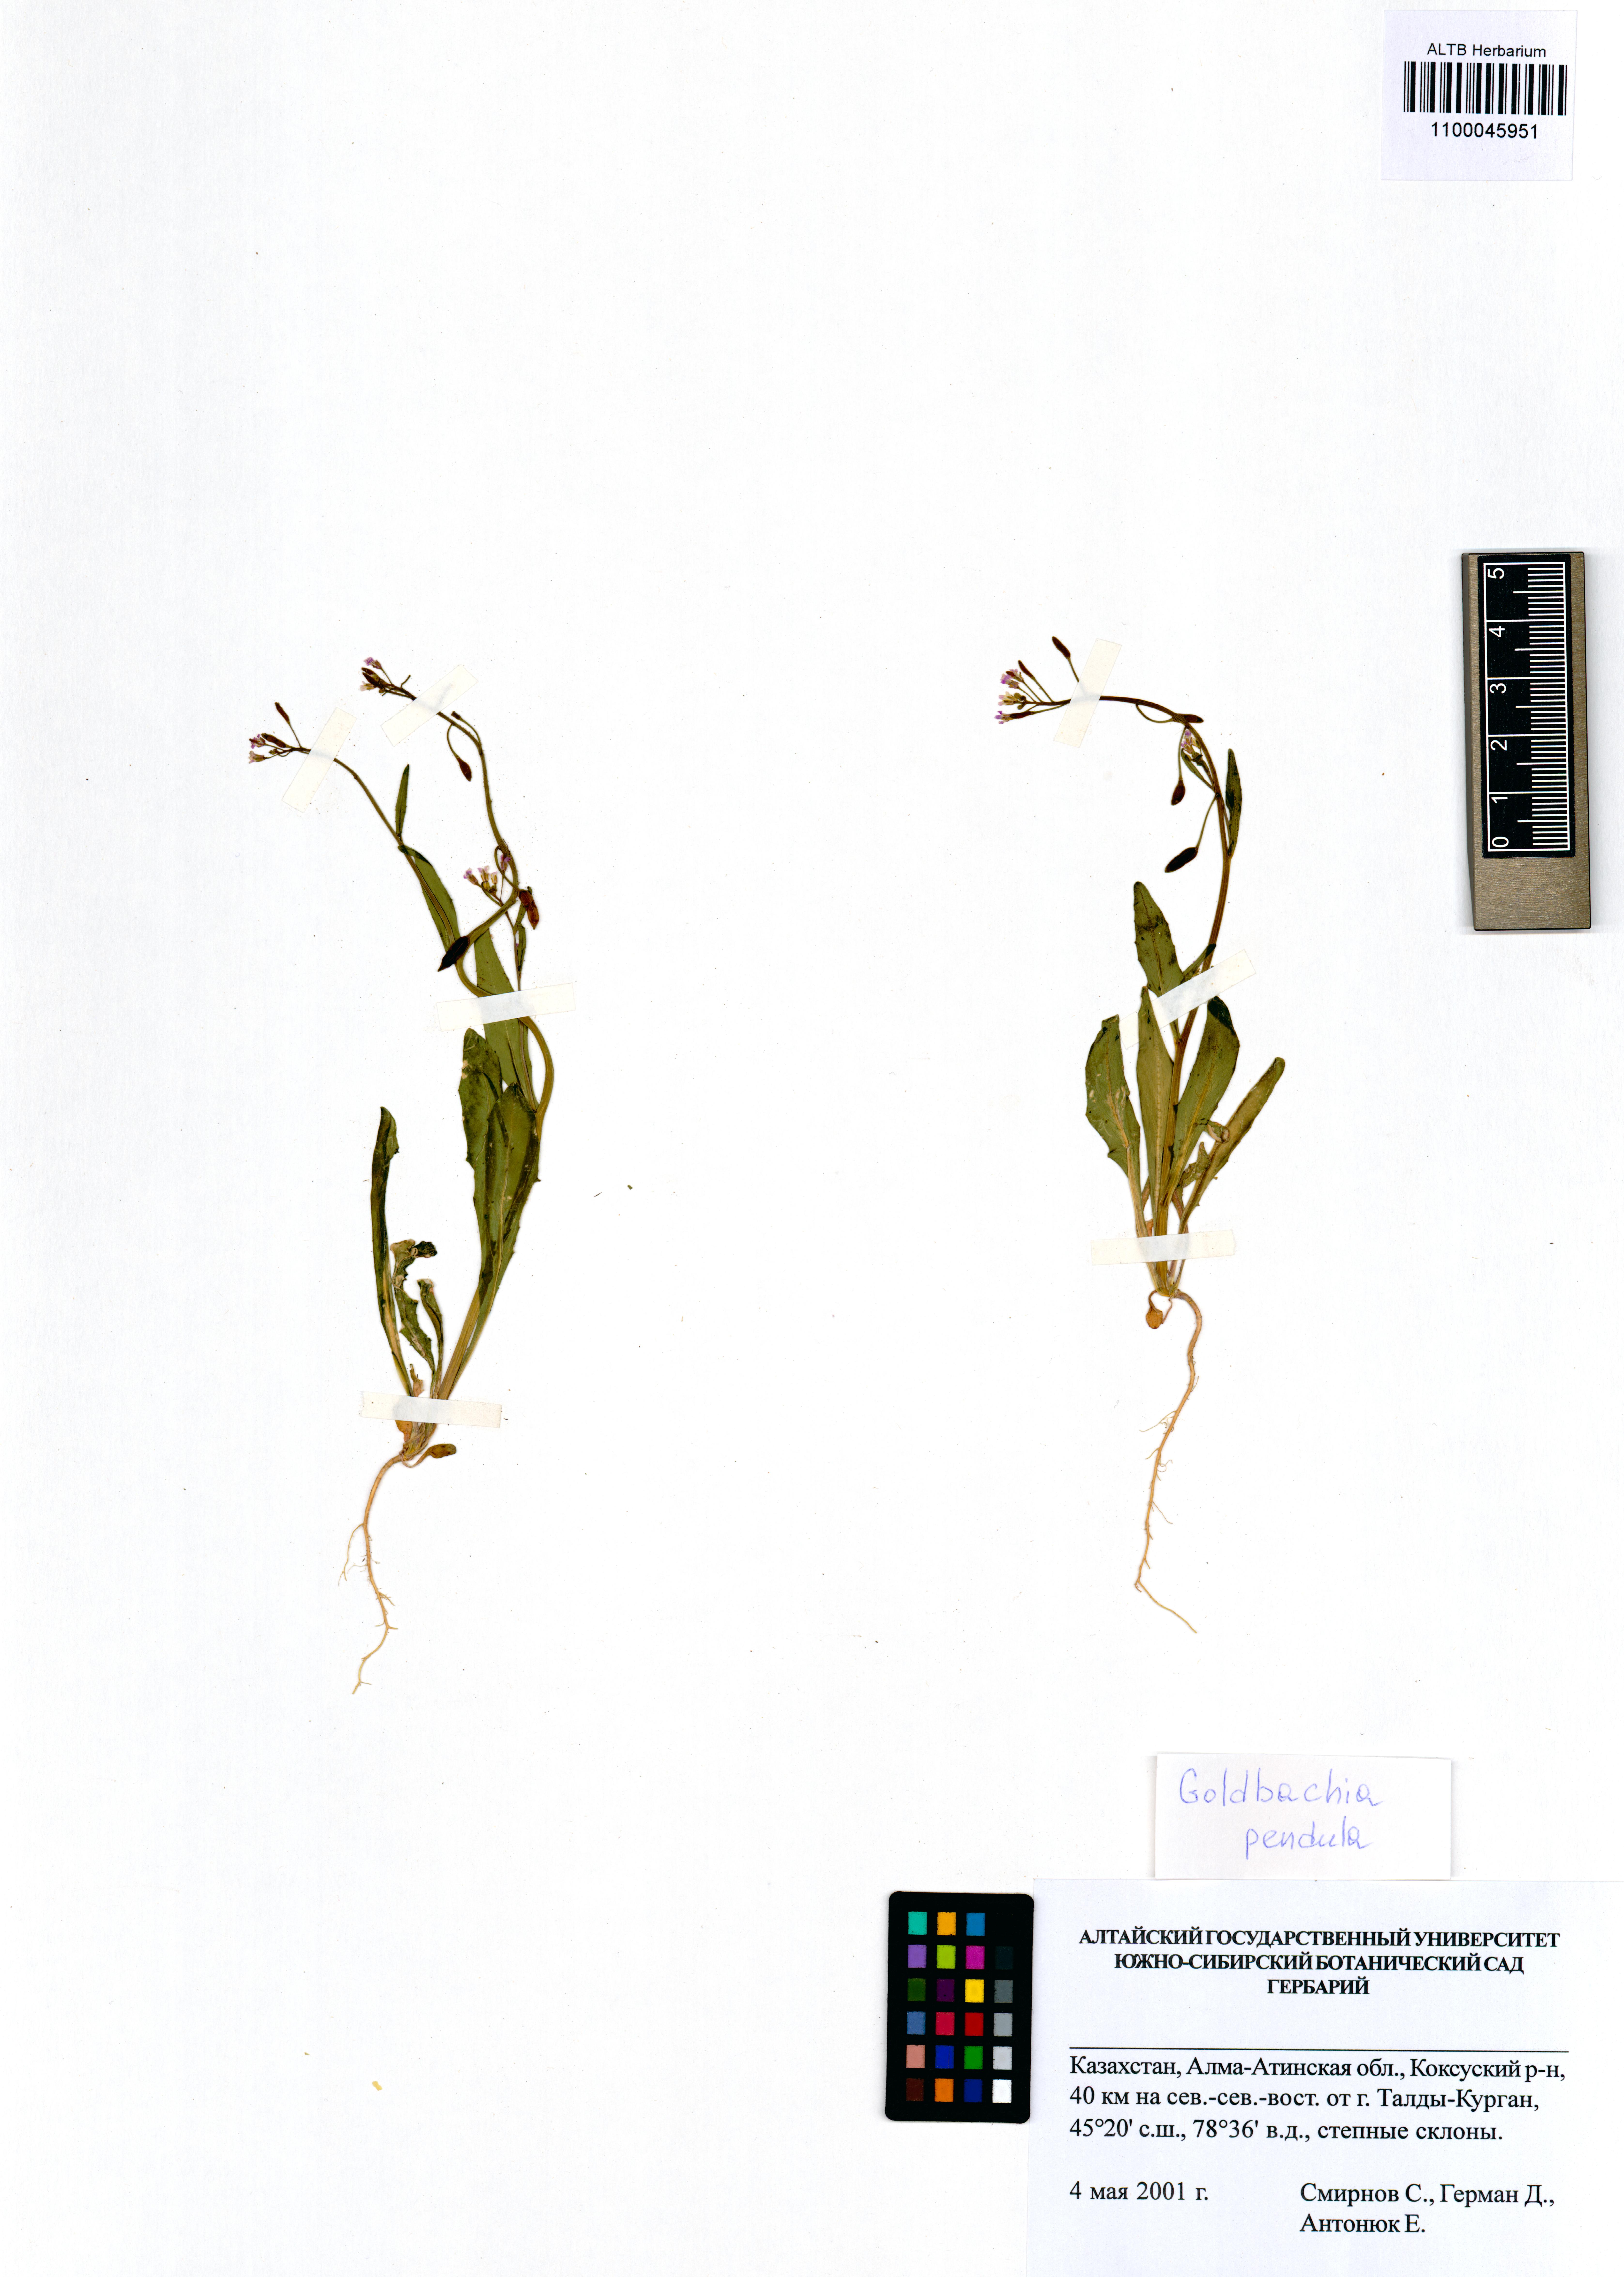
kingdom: Plantae
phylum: Tracheophyta
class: Magnoliopsida
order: Brassicales
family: Brassicaceae
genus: Goldbachia
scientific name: Goldbachia pendula
